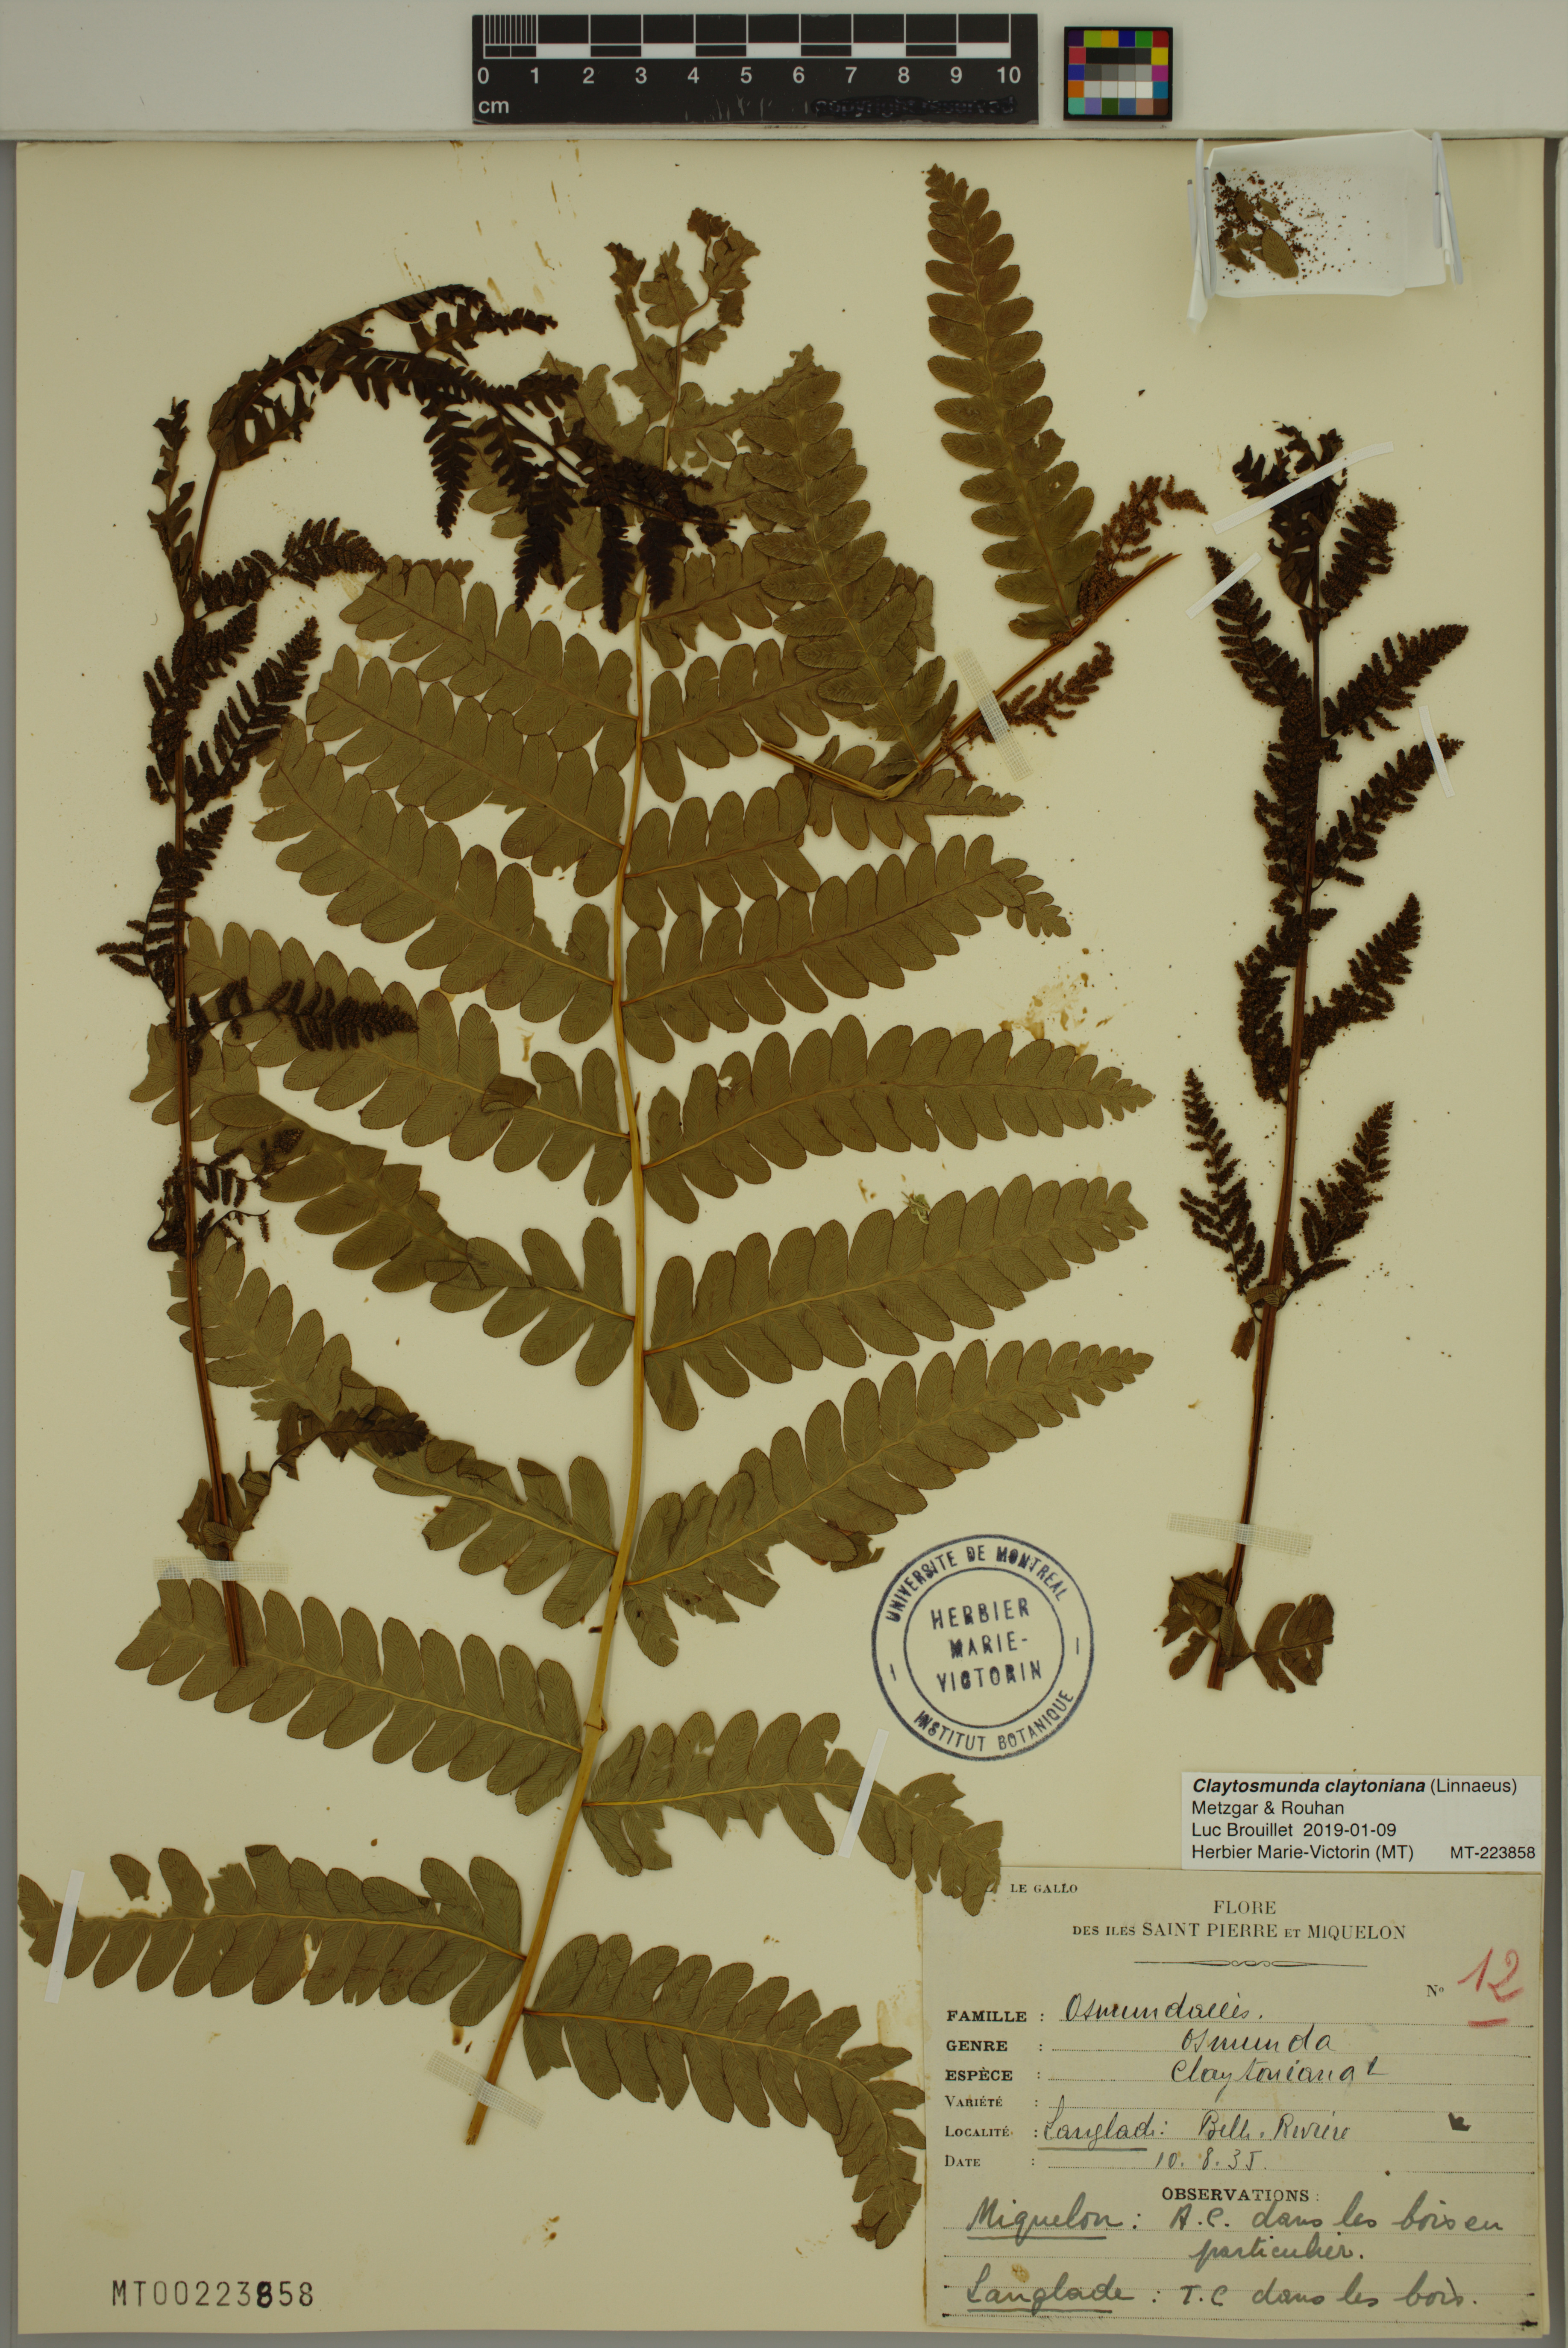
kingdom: Plantae
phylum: Tracheophyta
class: Polypodiopsida
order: Osmundales
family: Osmundaceae
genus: Claytosmunda
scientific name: Claytosmunda claytoniana
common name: Clayton's fern
